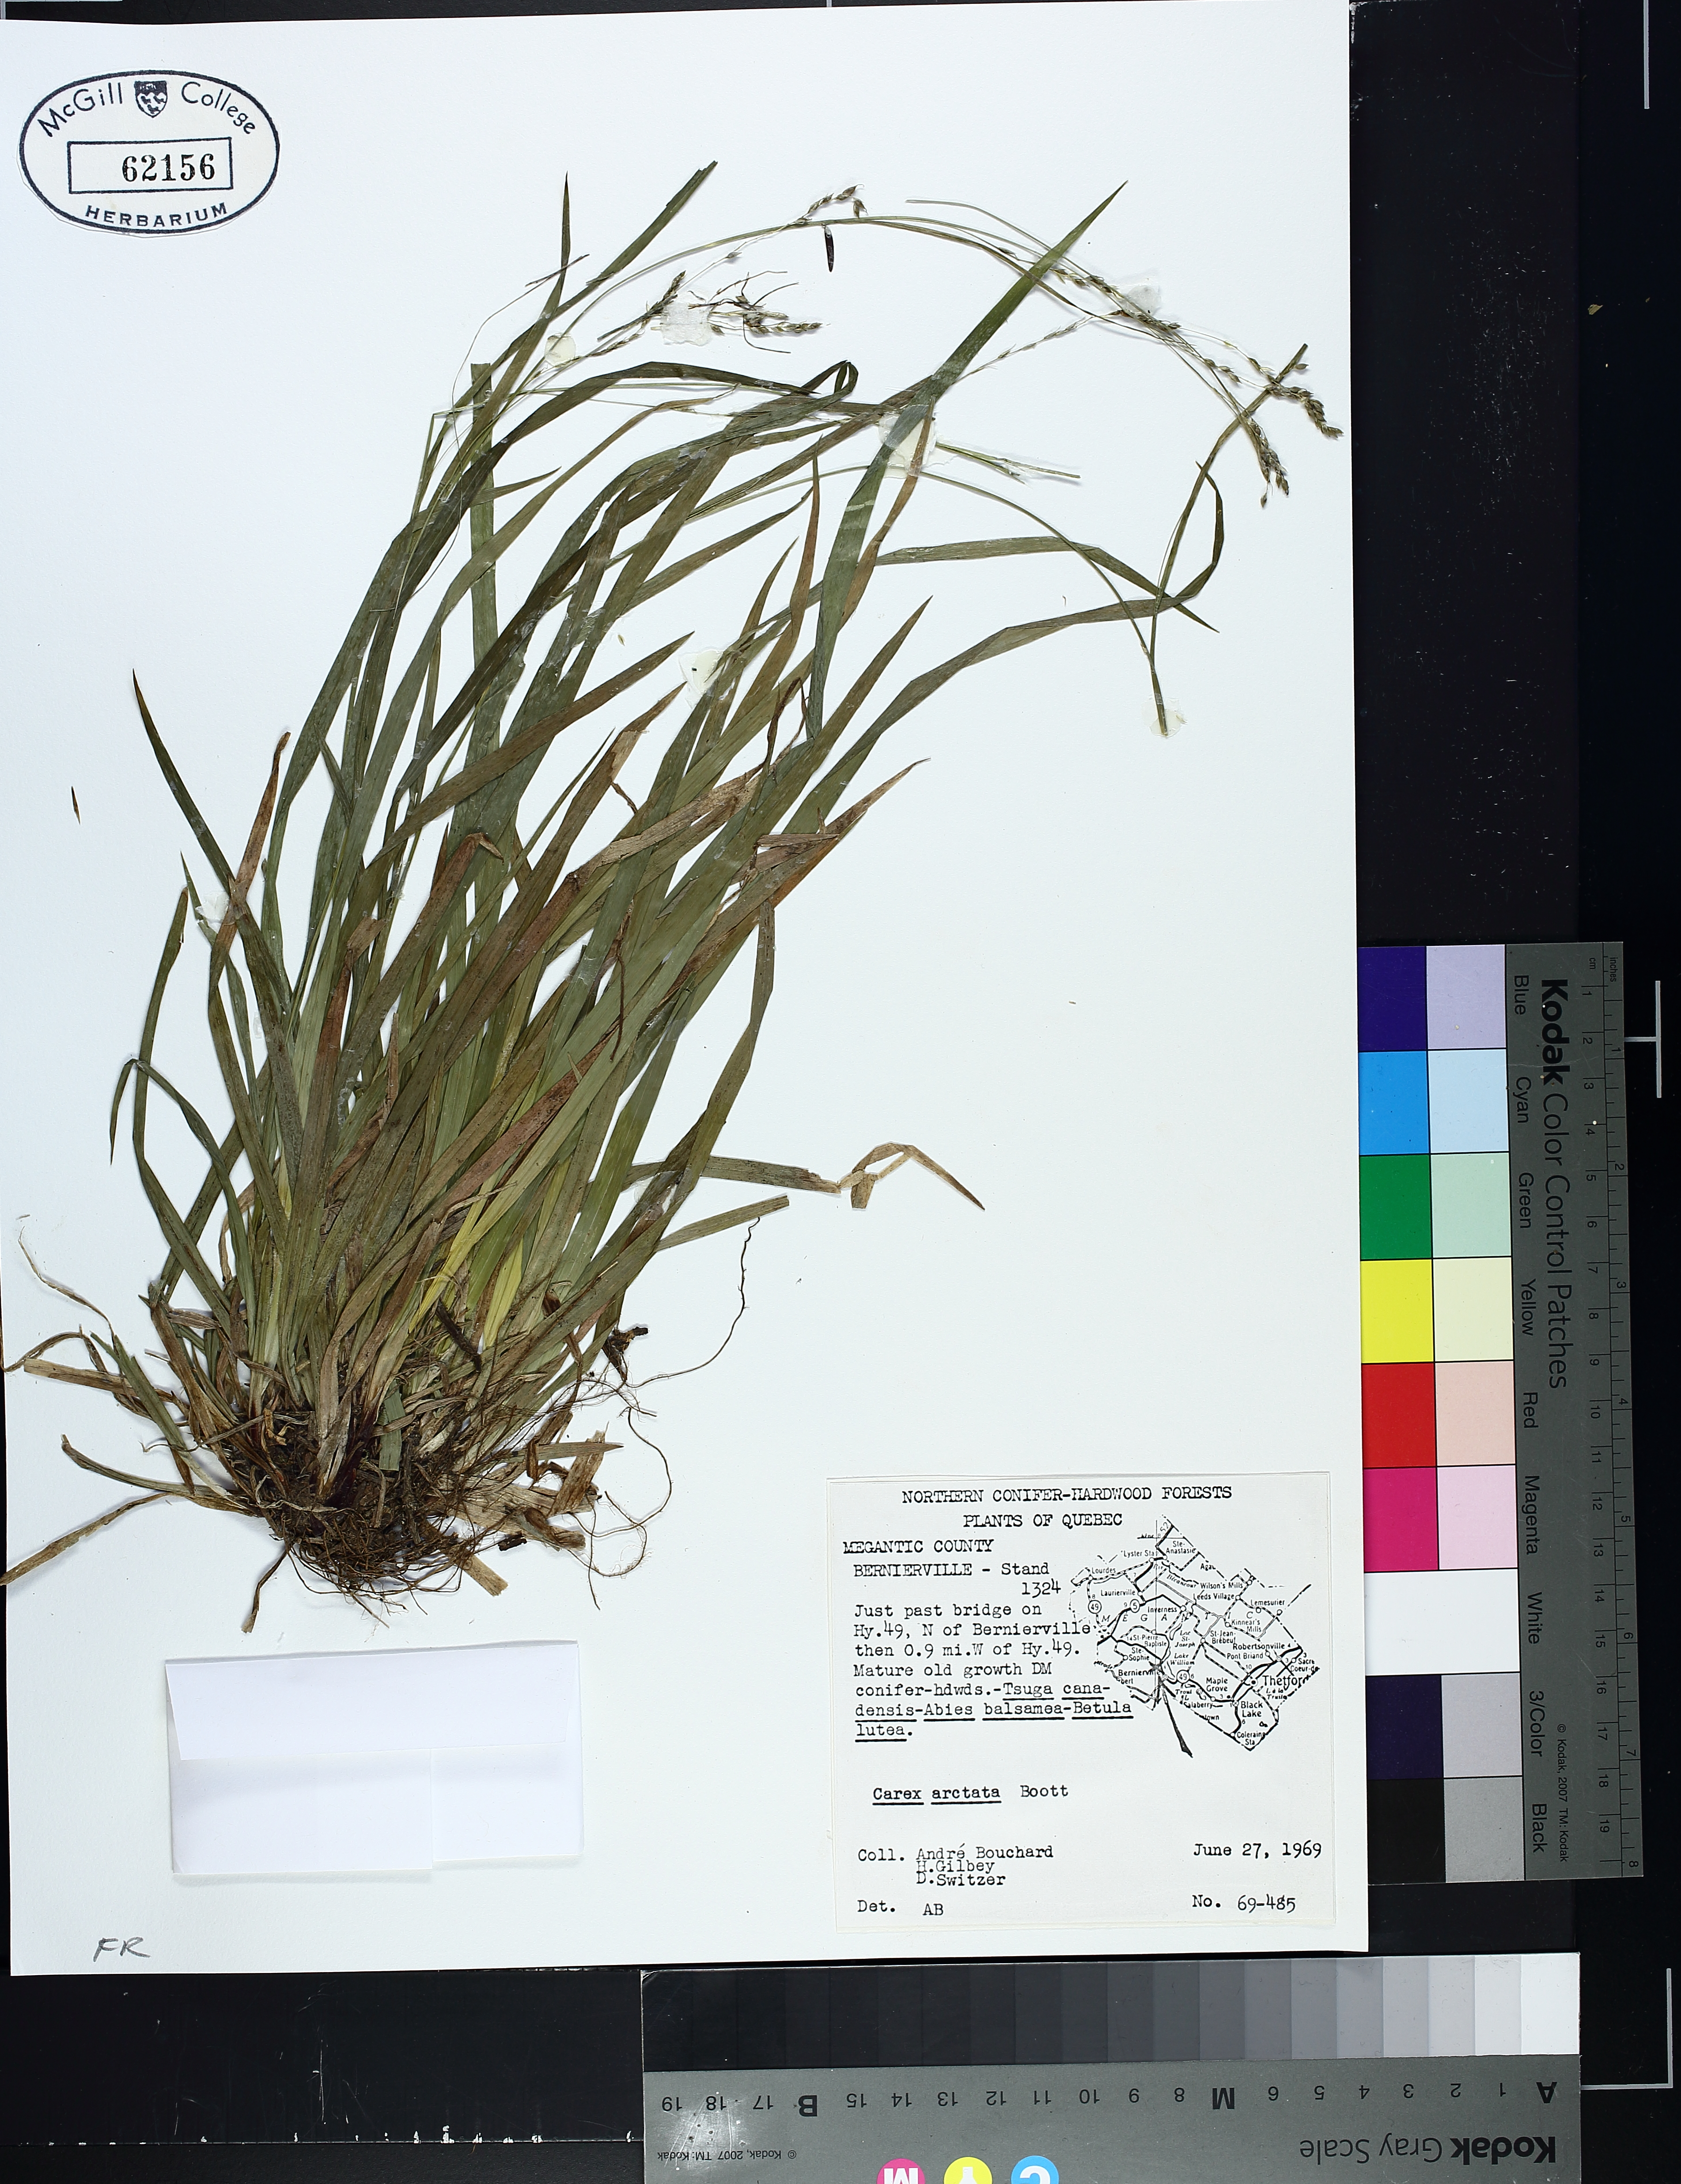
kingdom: Plantae
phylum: Tracheophyta
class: Liliopsida
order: Poales
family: Cyperaceae
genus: Carex
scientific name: Carex arctata
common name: Black sedge
